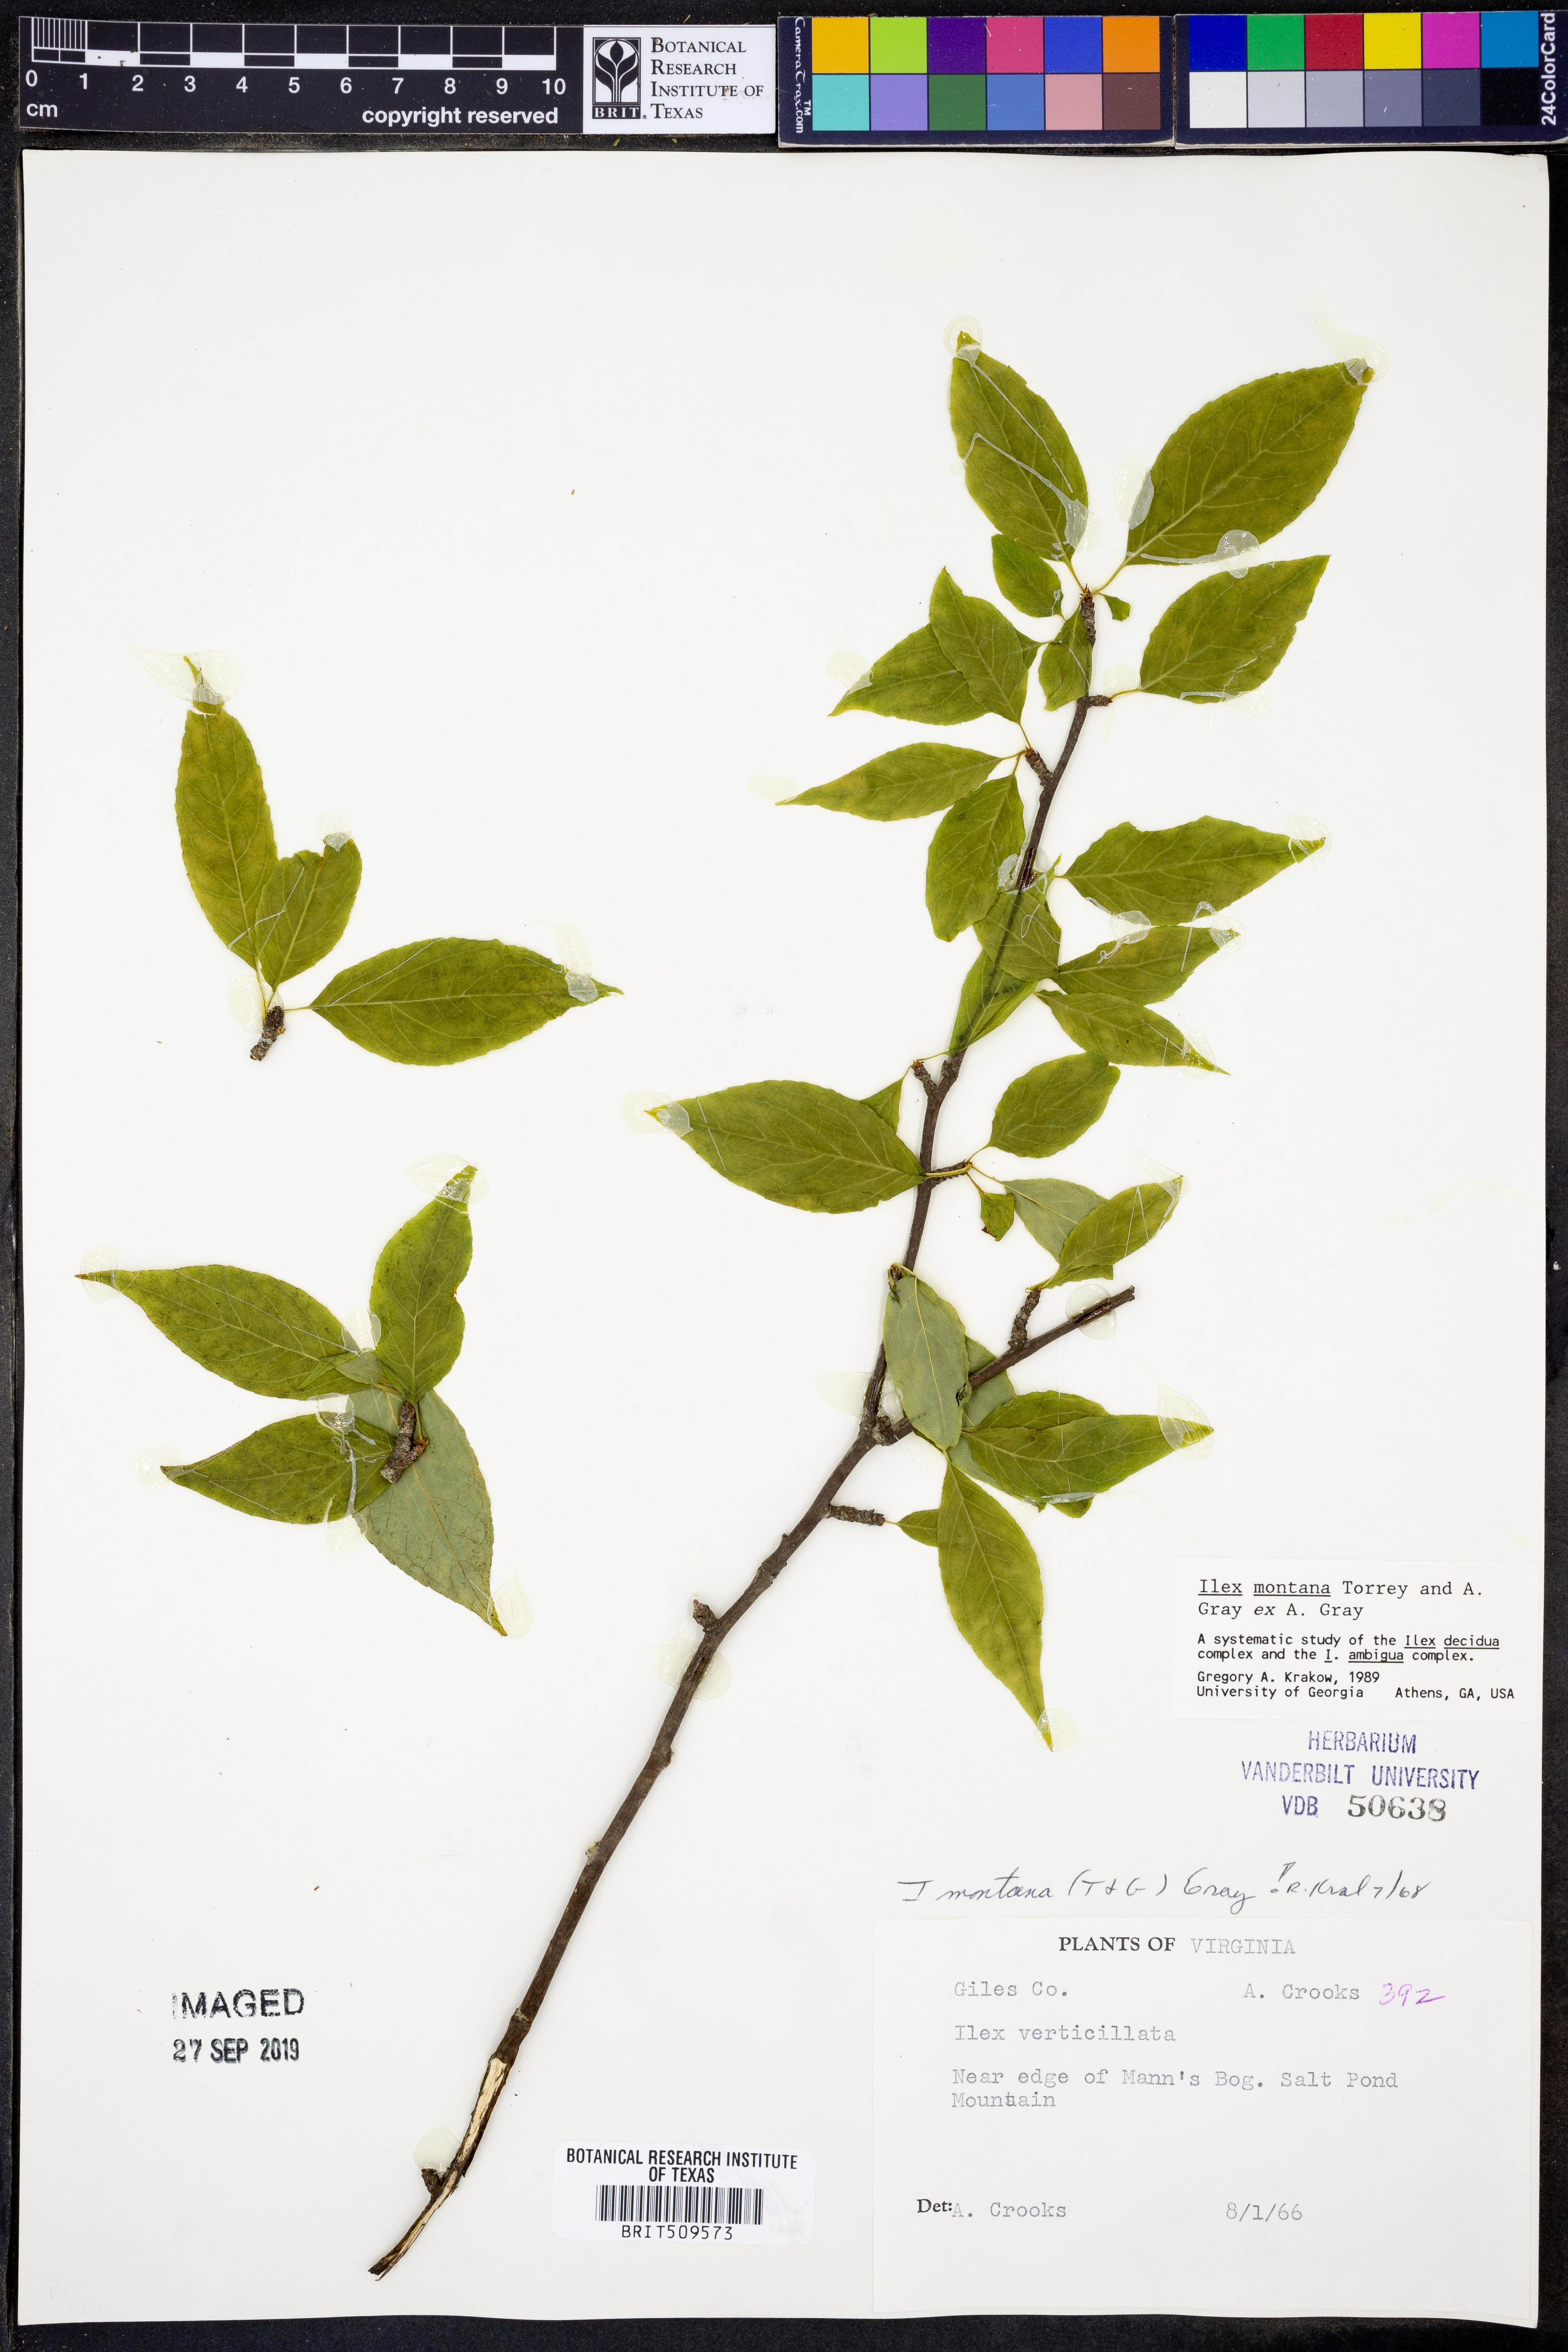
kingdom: Plantae
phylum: Tracheophyta
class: Magnoliopsida
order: Aquifoliales
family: Aquifoliaceae
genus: Ilex
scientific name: Ilex montana
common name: Mountain winterberry
